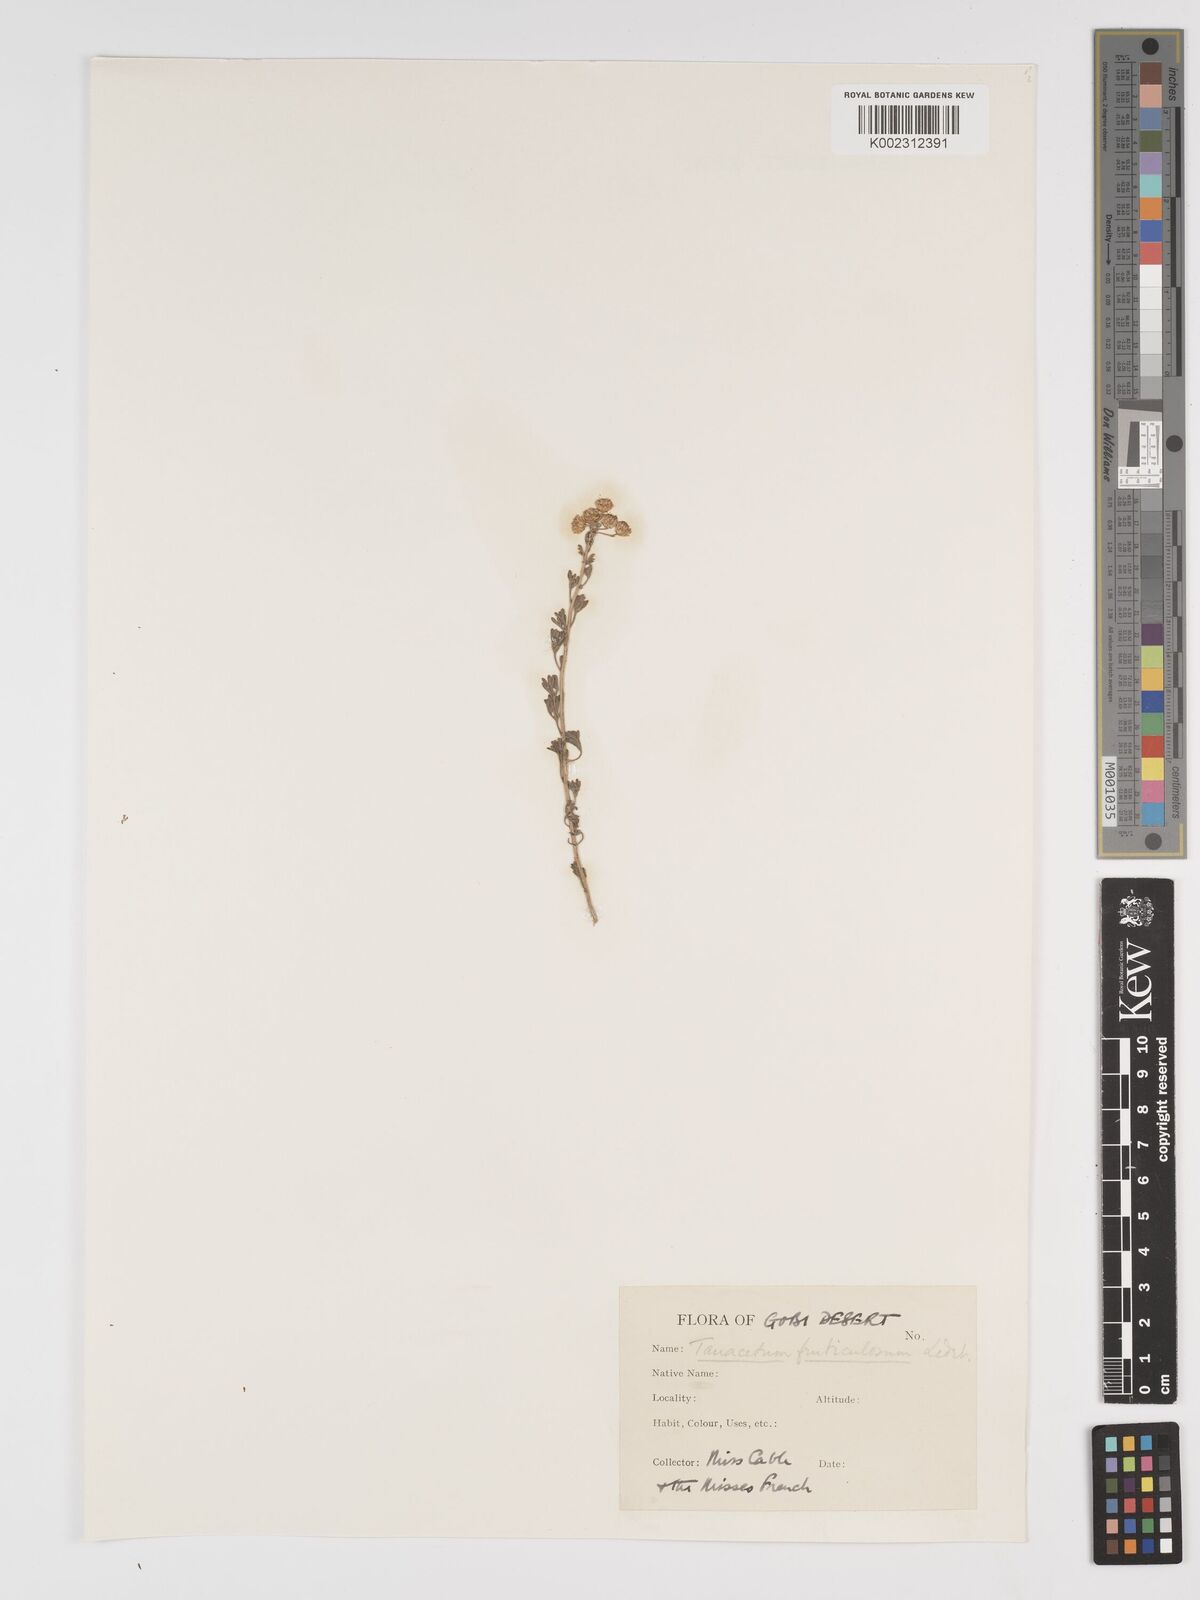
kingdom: Plantae
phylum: Tracheophyta
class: Magnoliopsida
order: Asterales
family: Asteraceae
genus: Tanacetum
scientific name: Tanacetum
